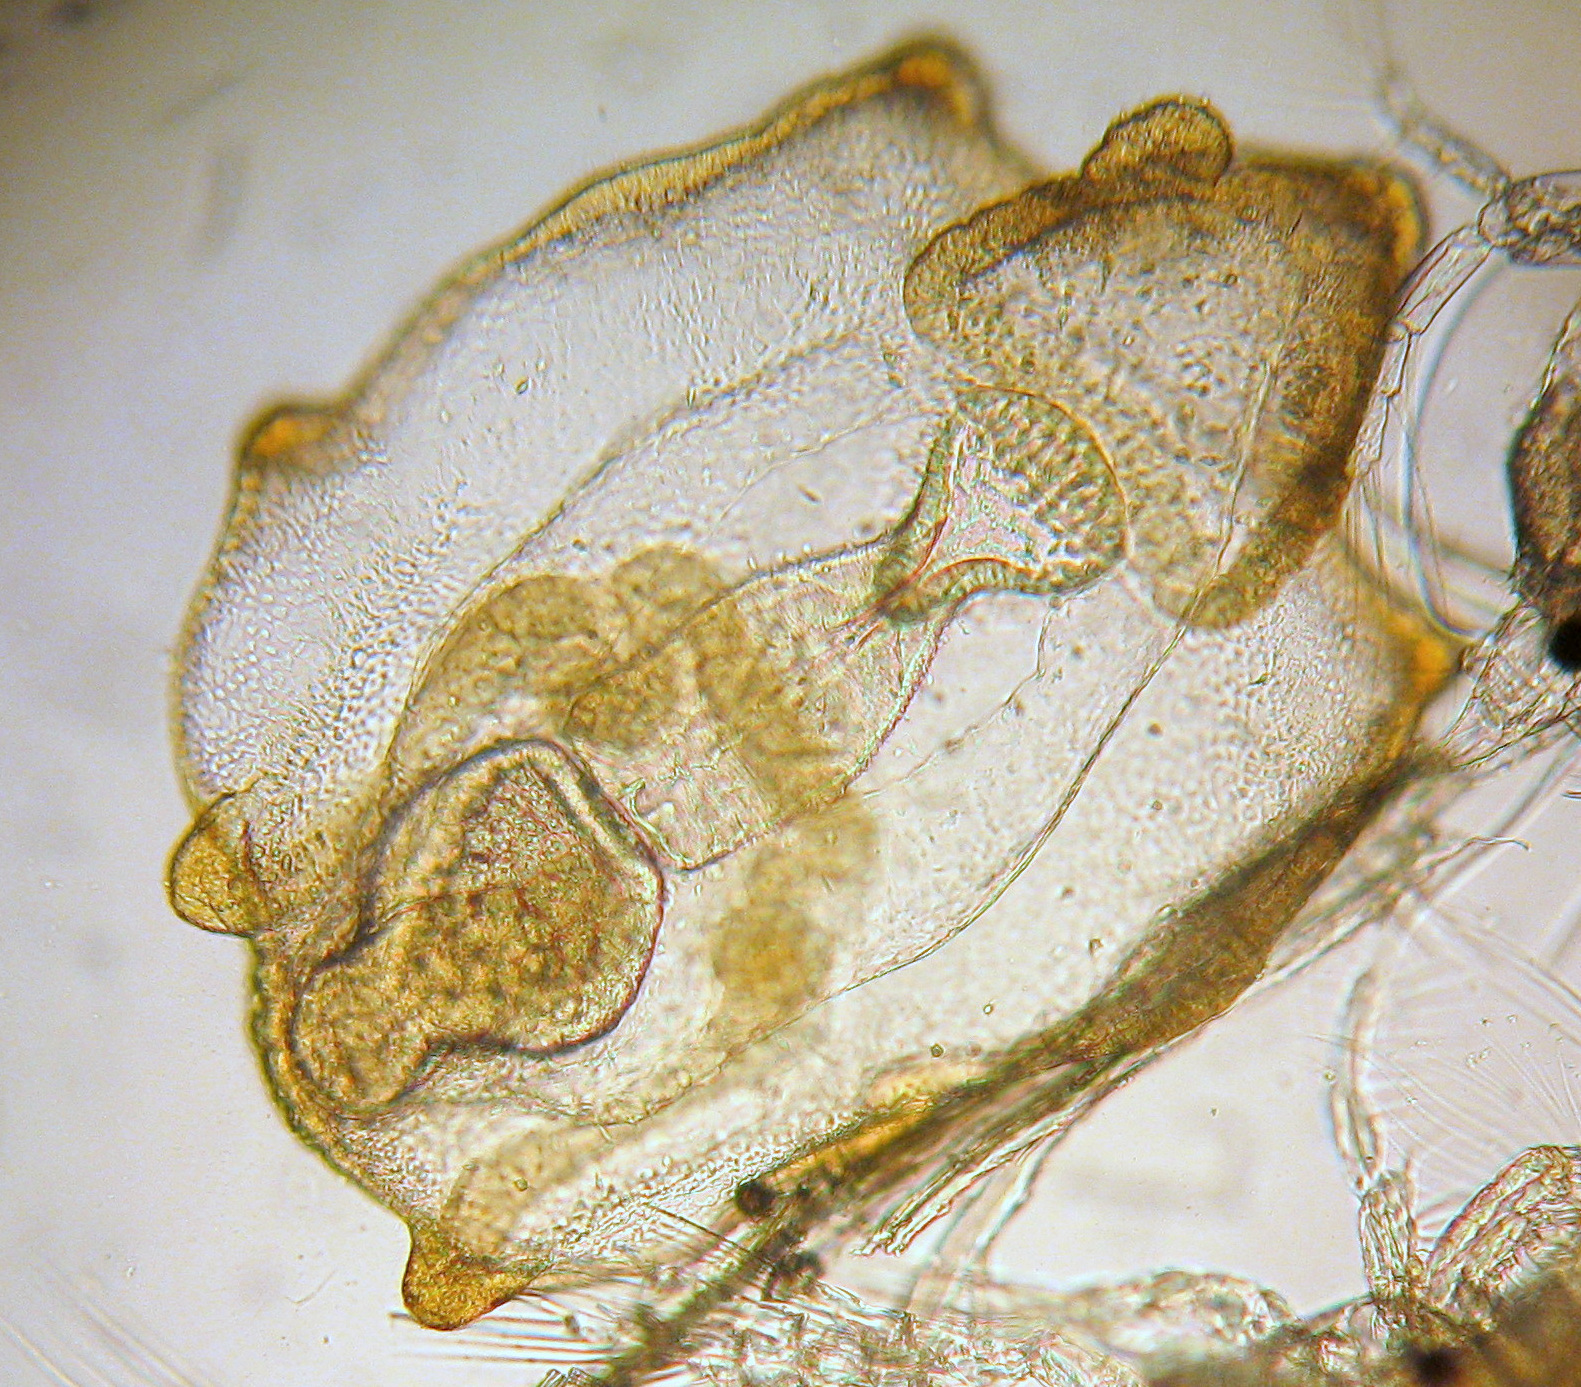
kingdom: Animalia
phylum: Echinodermata
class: Asteroidea
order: Forcipulatida
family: Asteriidae
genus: Asterias
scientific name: Asterias rubens
